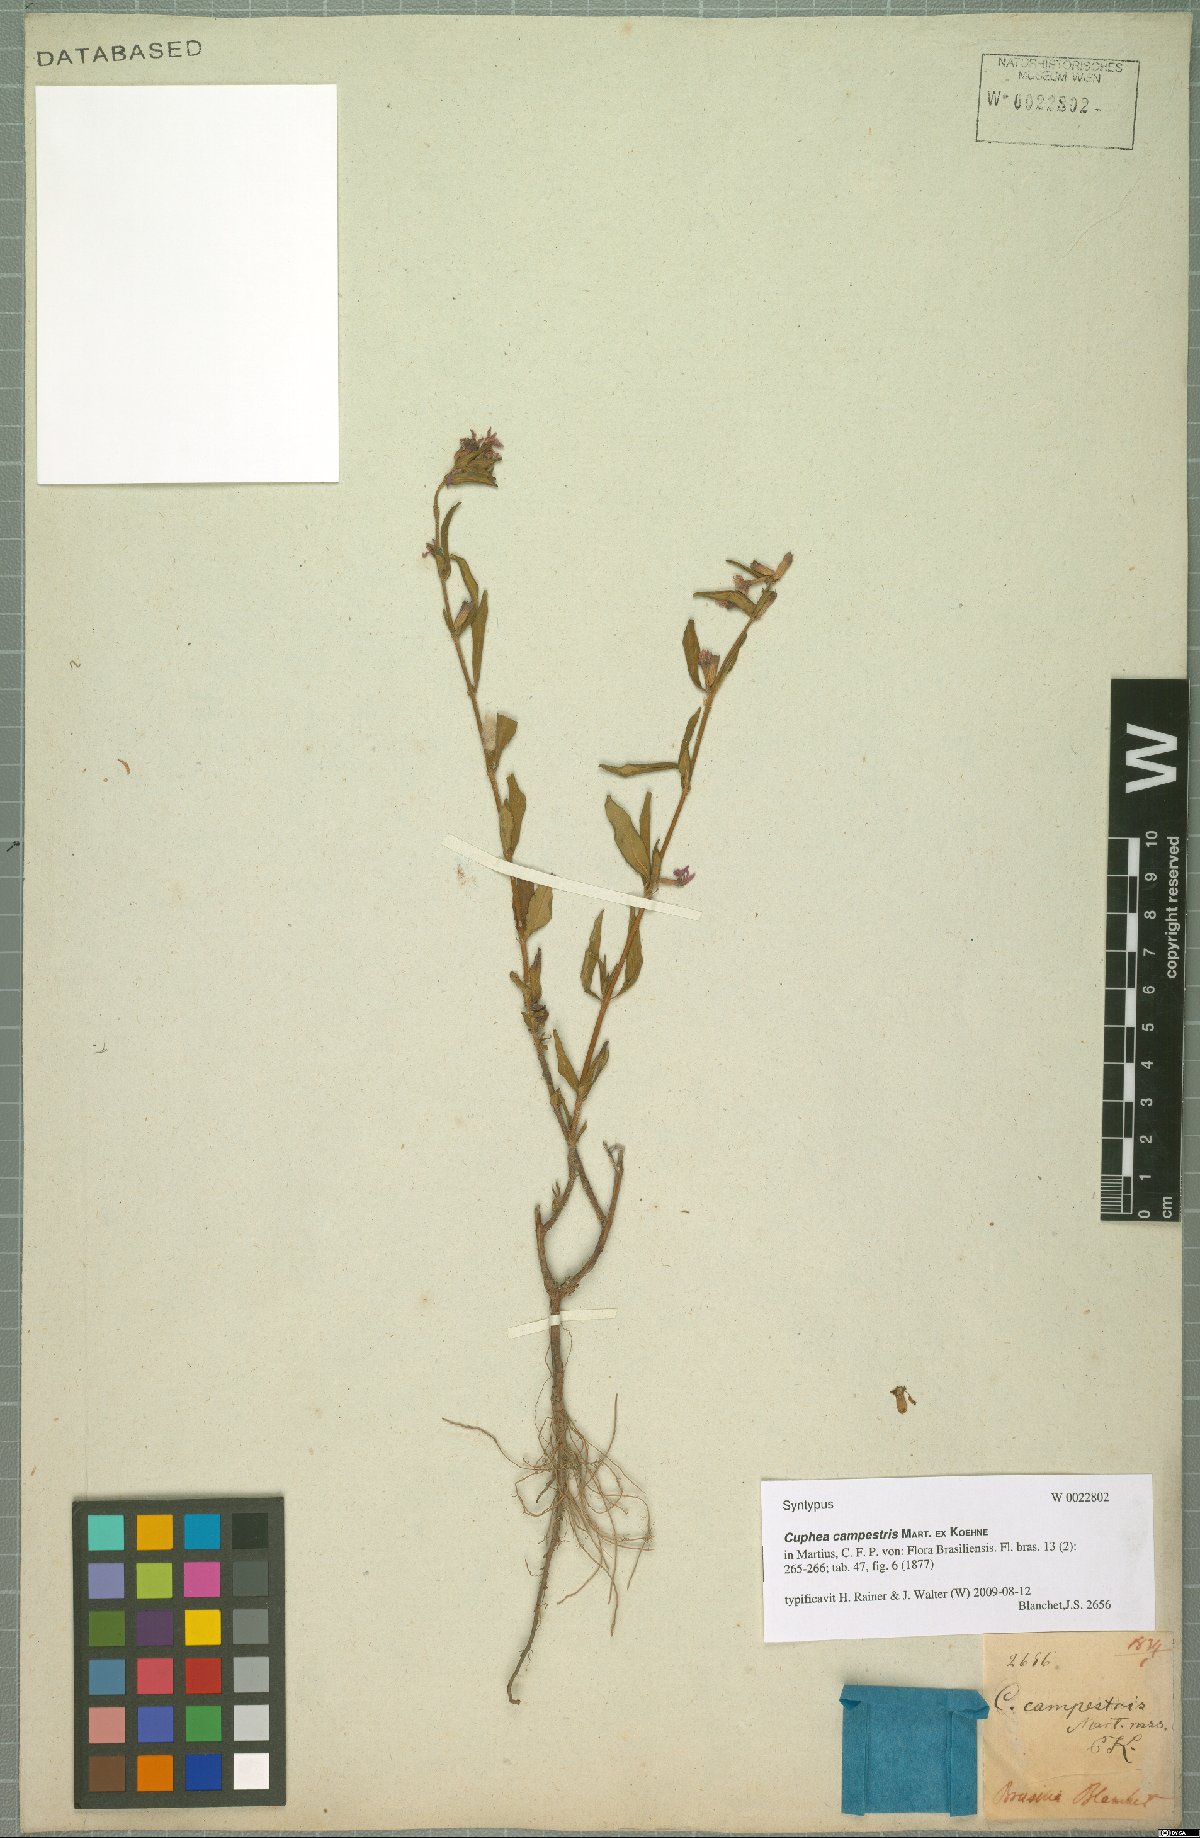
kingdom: Plantae
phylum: Tracheophyta
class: Magnoliopsida
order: Myrtales
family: Lythraceae
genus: Cuphea
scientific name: Cuphea campestris
